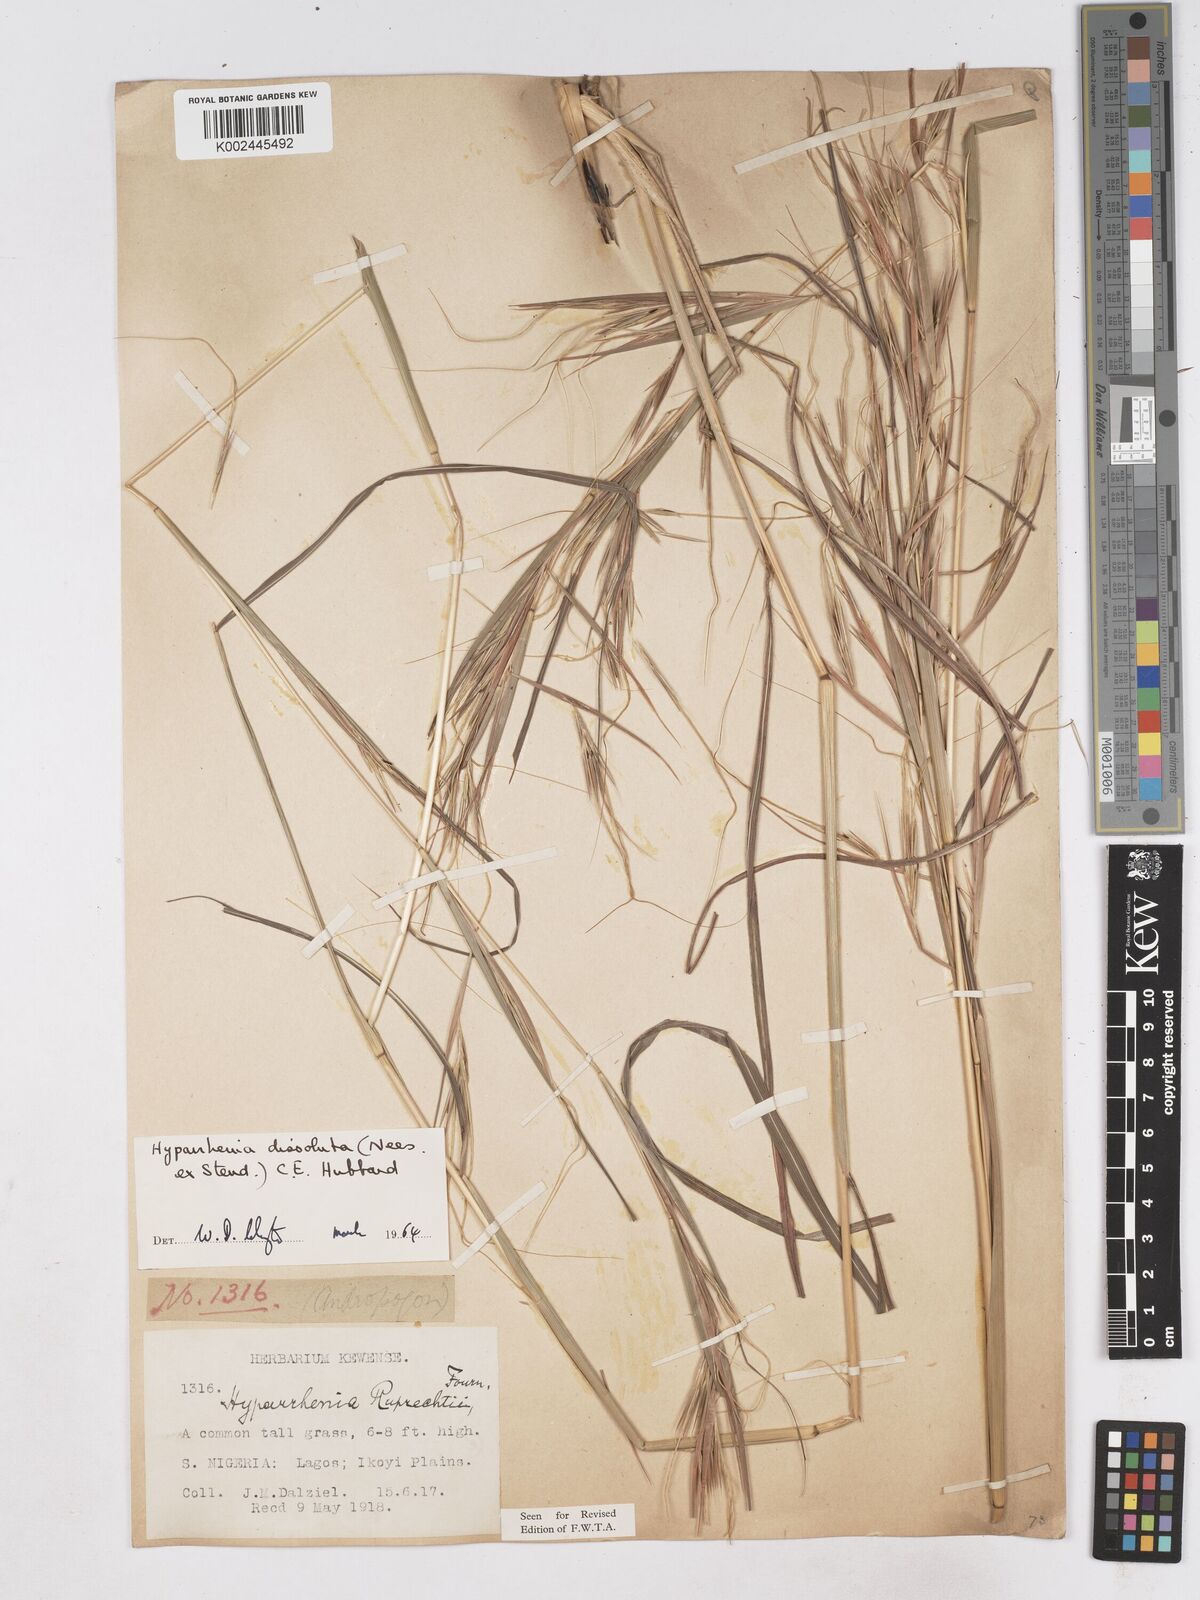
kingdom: Plantae
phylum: Tracheophyta
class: Liliopsida
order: Poales
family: Poaceae
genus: Hyperthelia
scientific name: Hyperthelia dissoluta
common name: Yellow thatching grass
